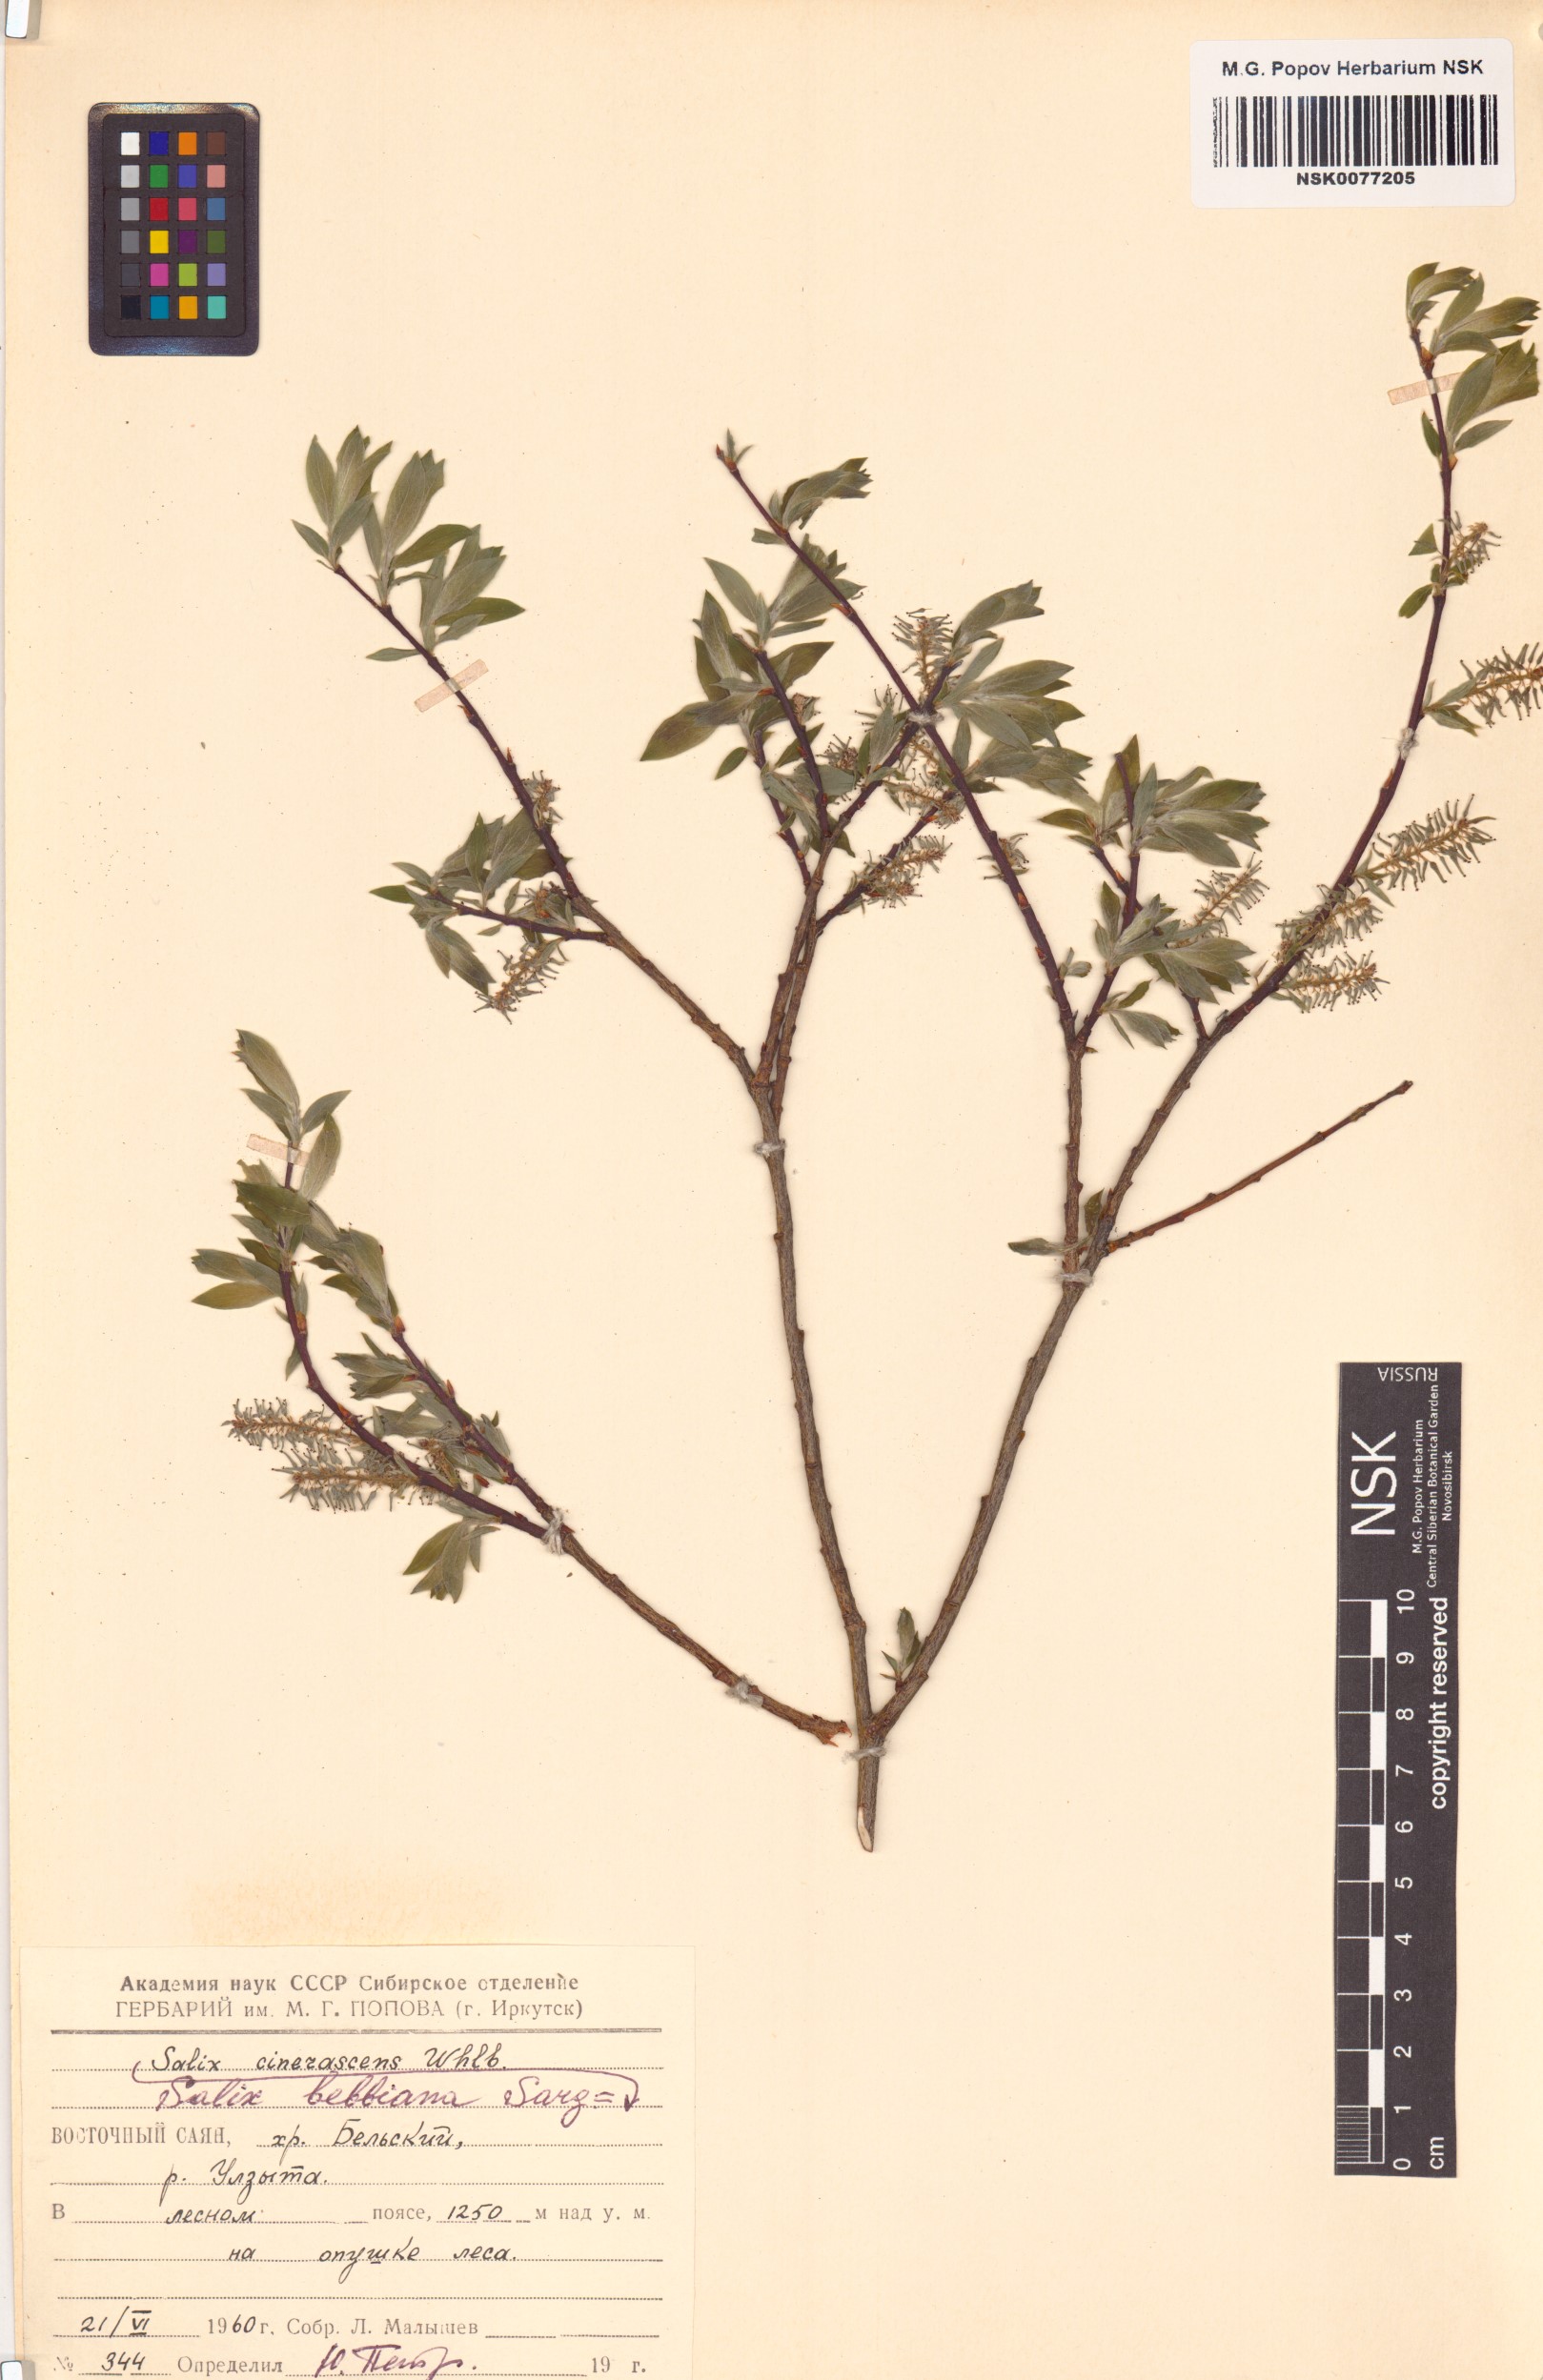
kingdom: Plantae
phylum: Tracheophyta
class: Magnoliopsida
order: Malpighiales
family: Salicaceae
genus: Salix
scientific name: Salix bebbiana
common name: Bebb's willow
